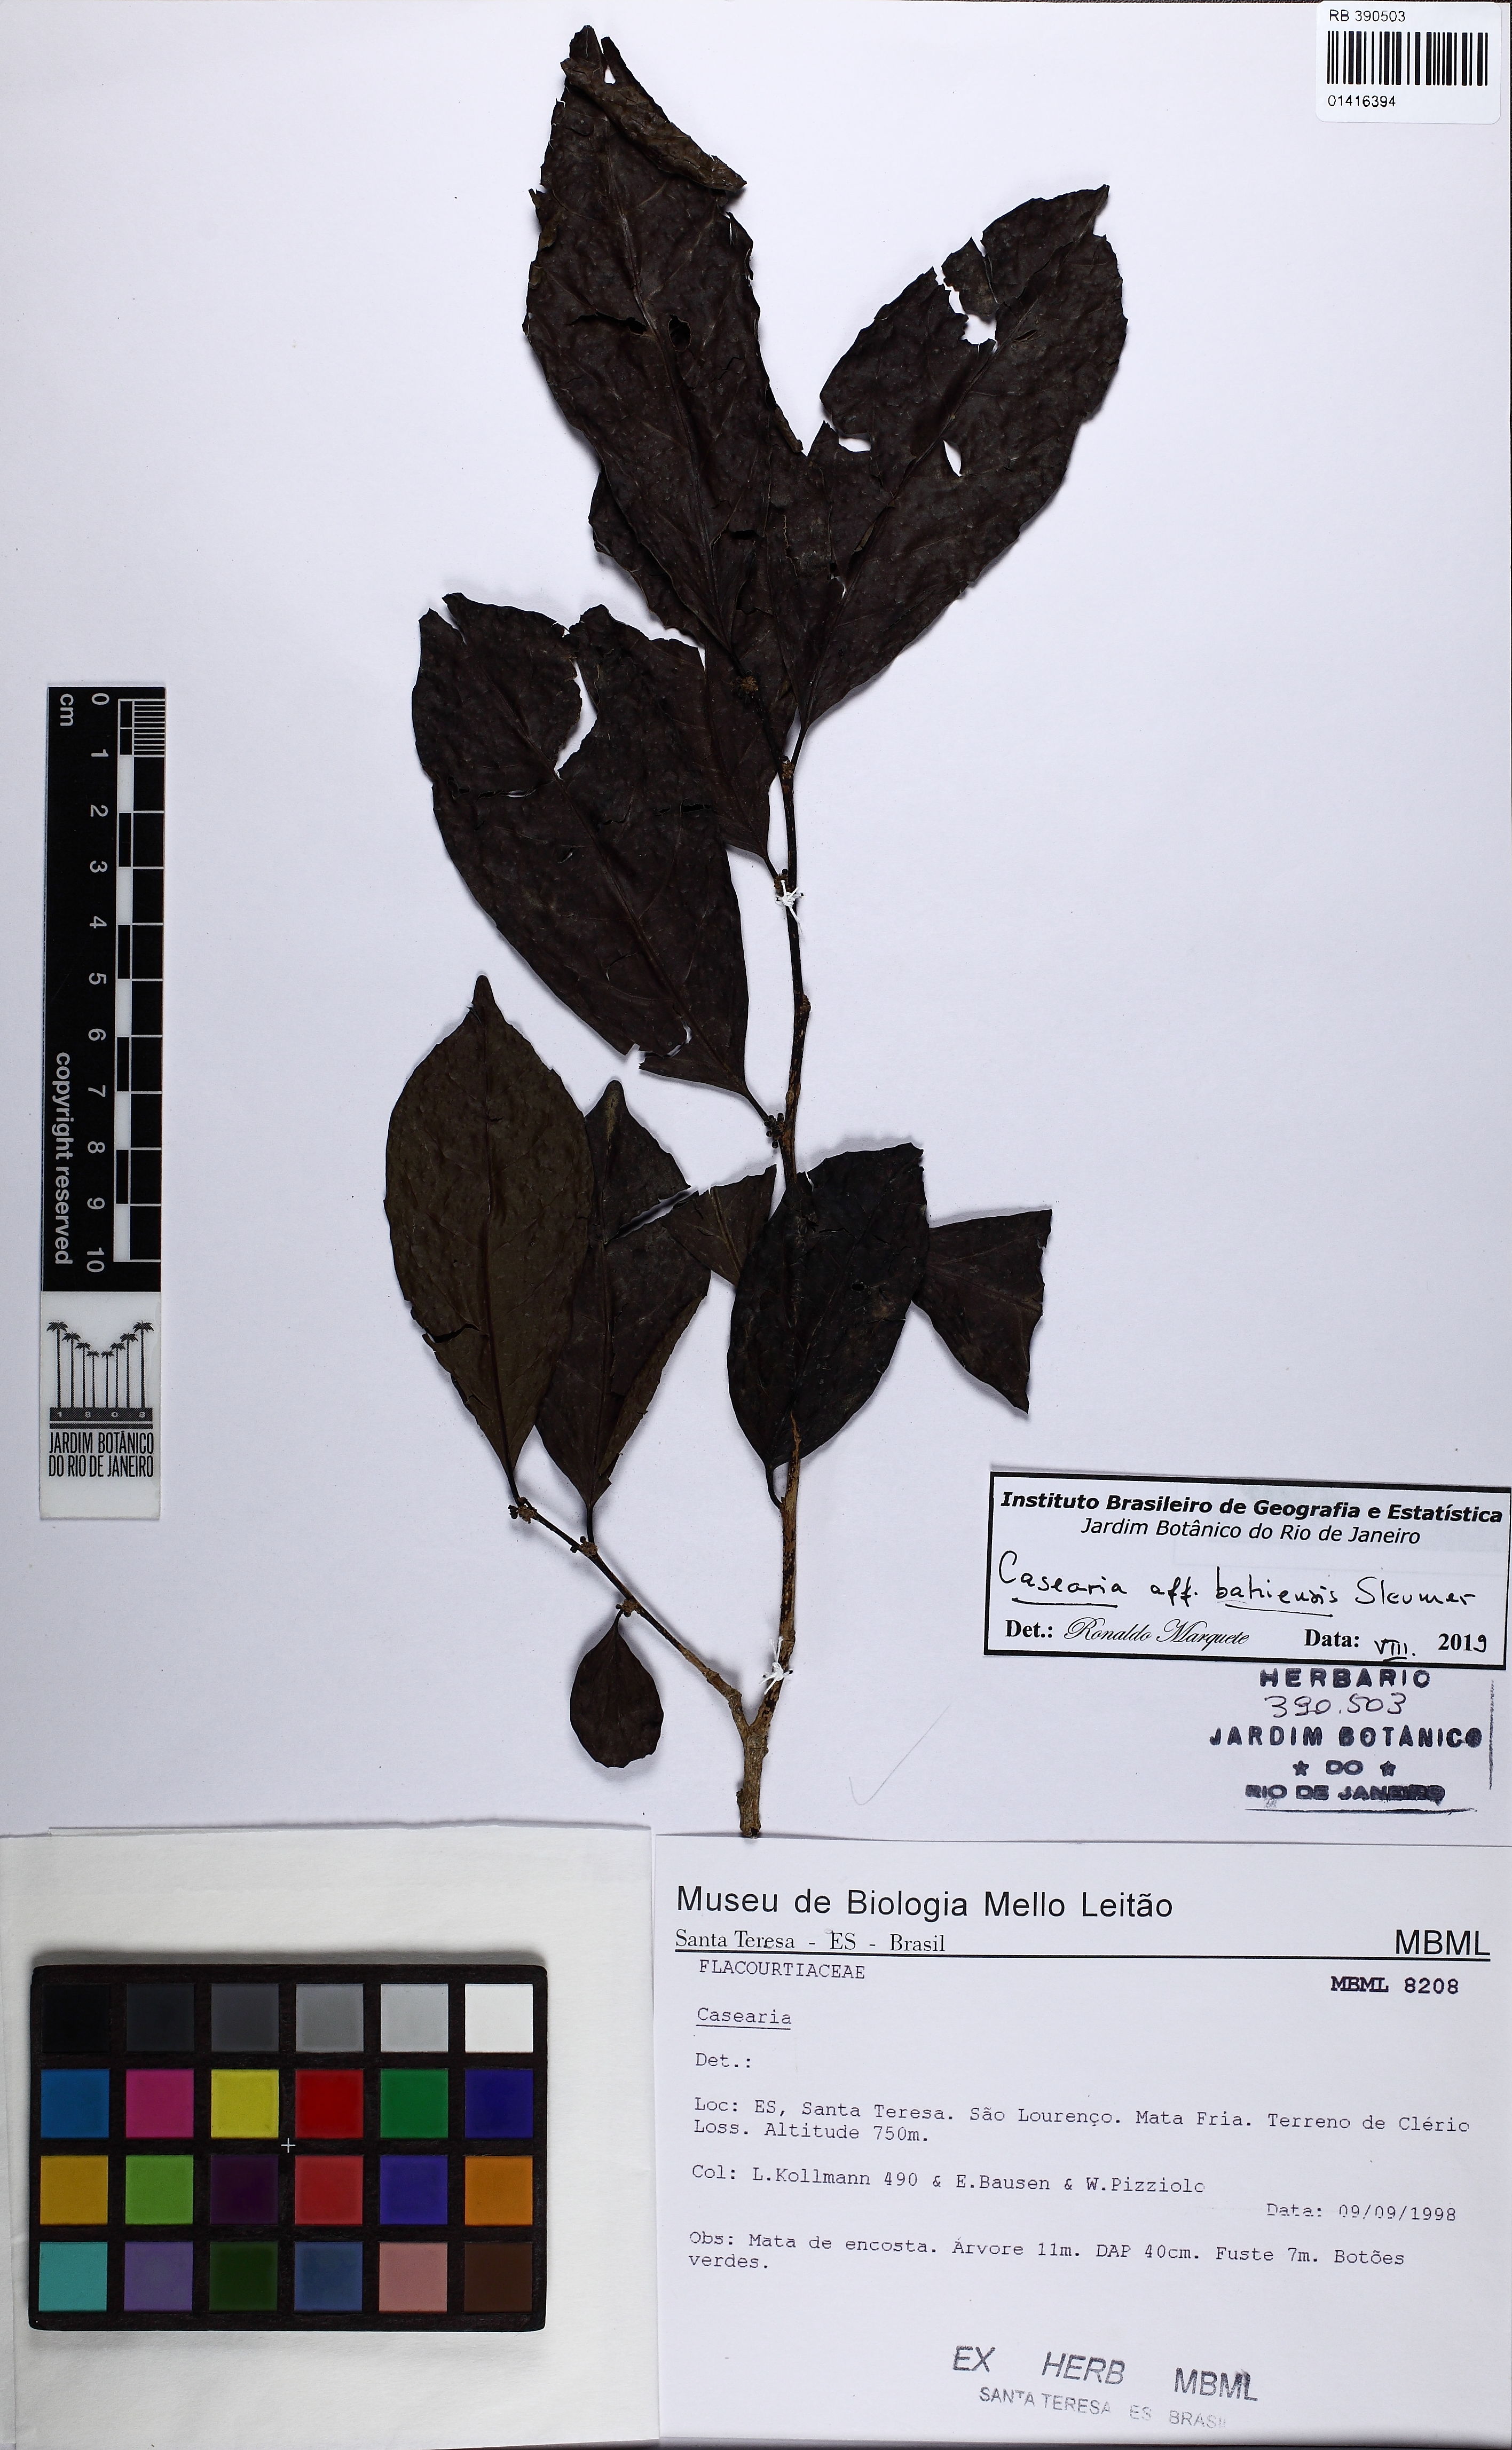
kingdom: Plantae
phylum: Tracheophyta
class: Magnoliopsida
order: Malpighiales
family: Salicaceae
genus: Casearia
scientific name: Casearia bahiensis
